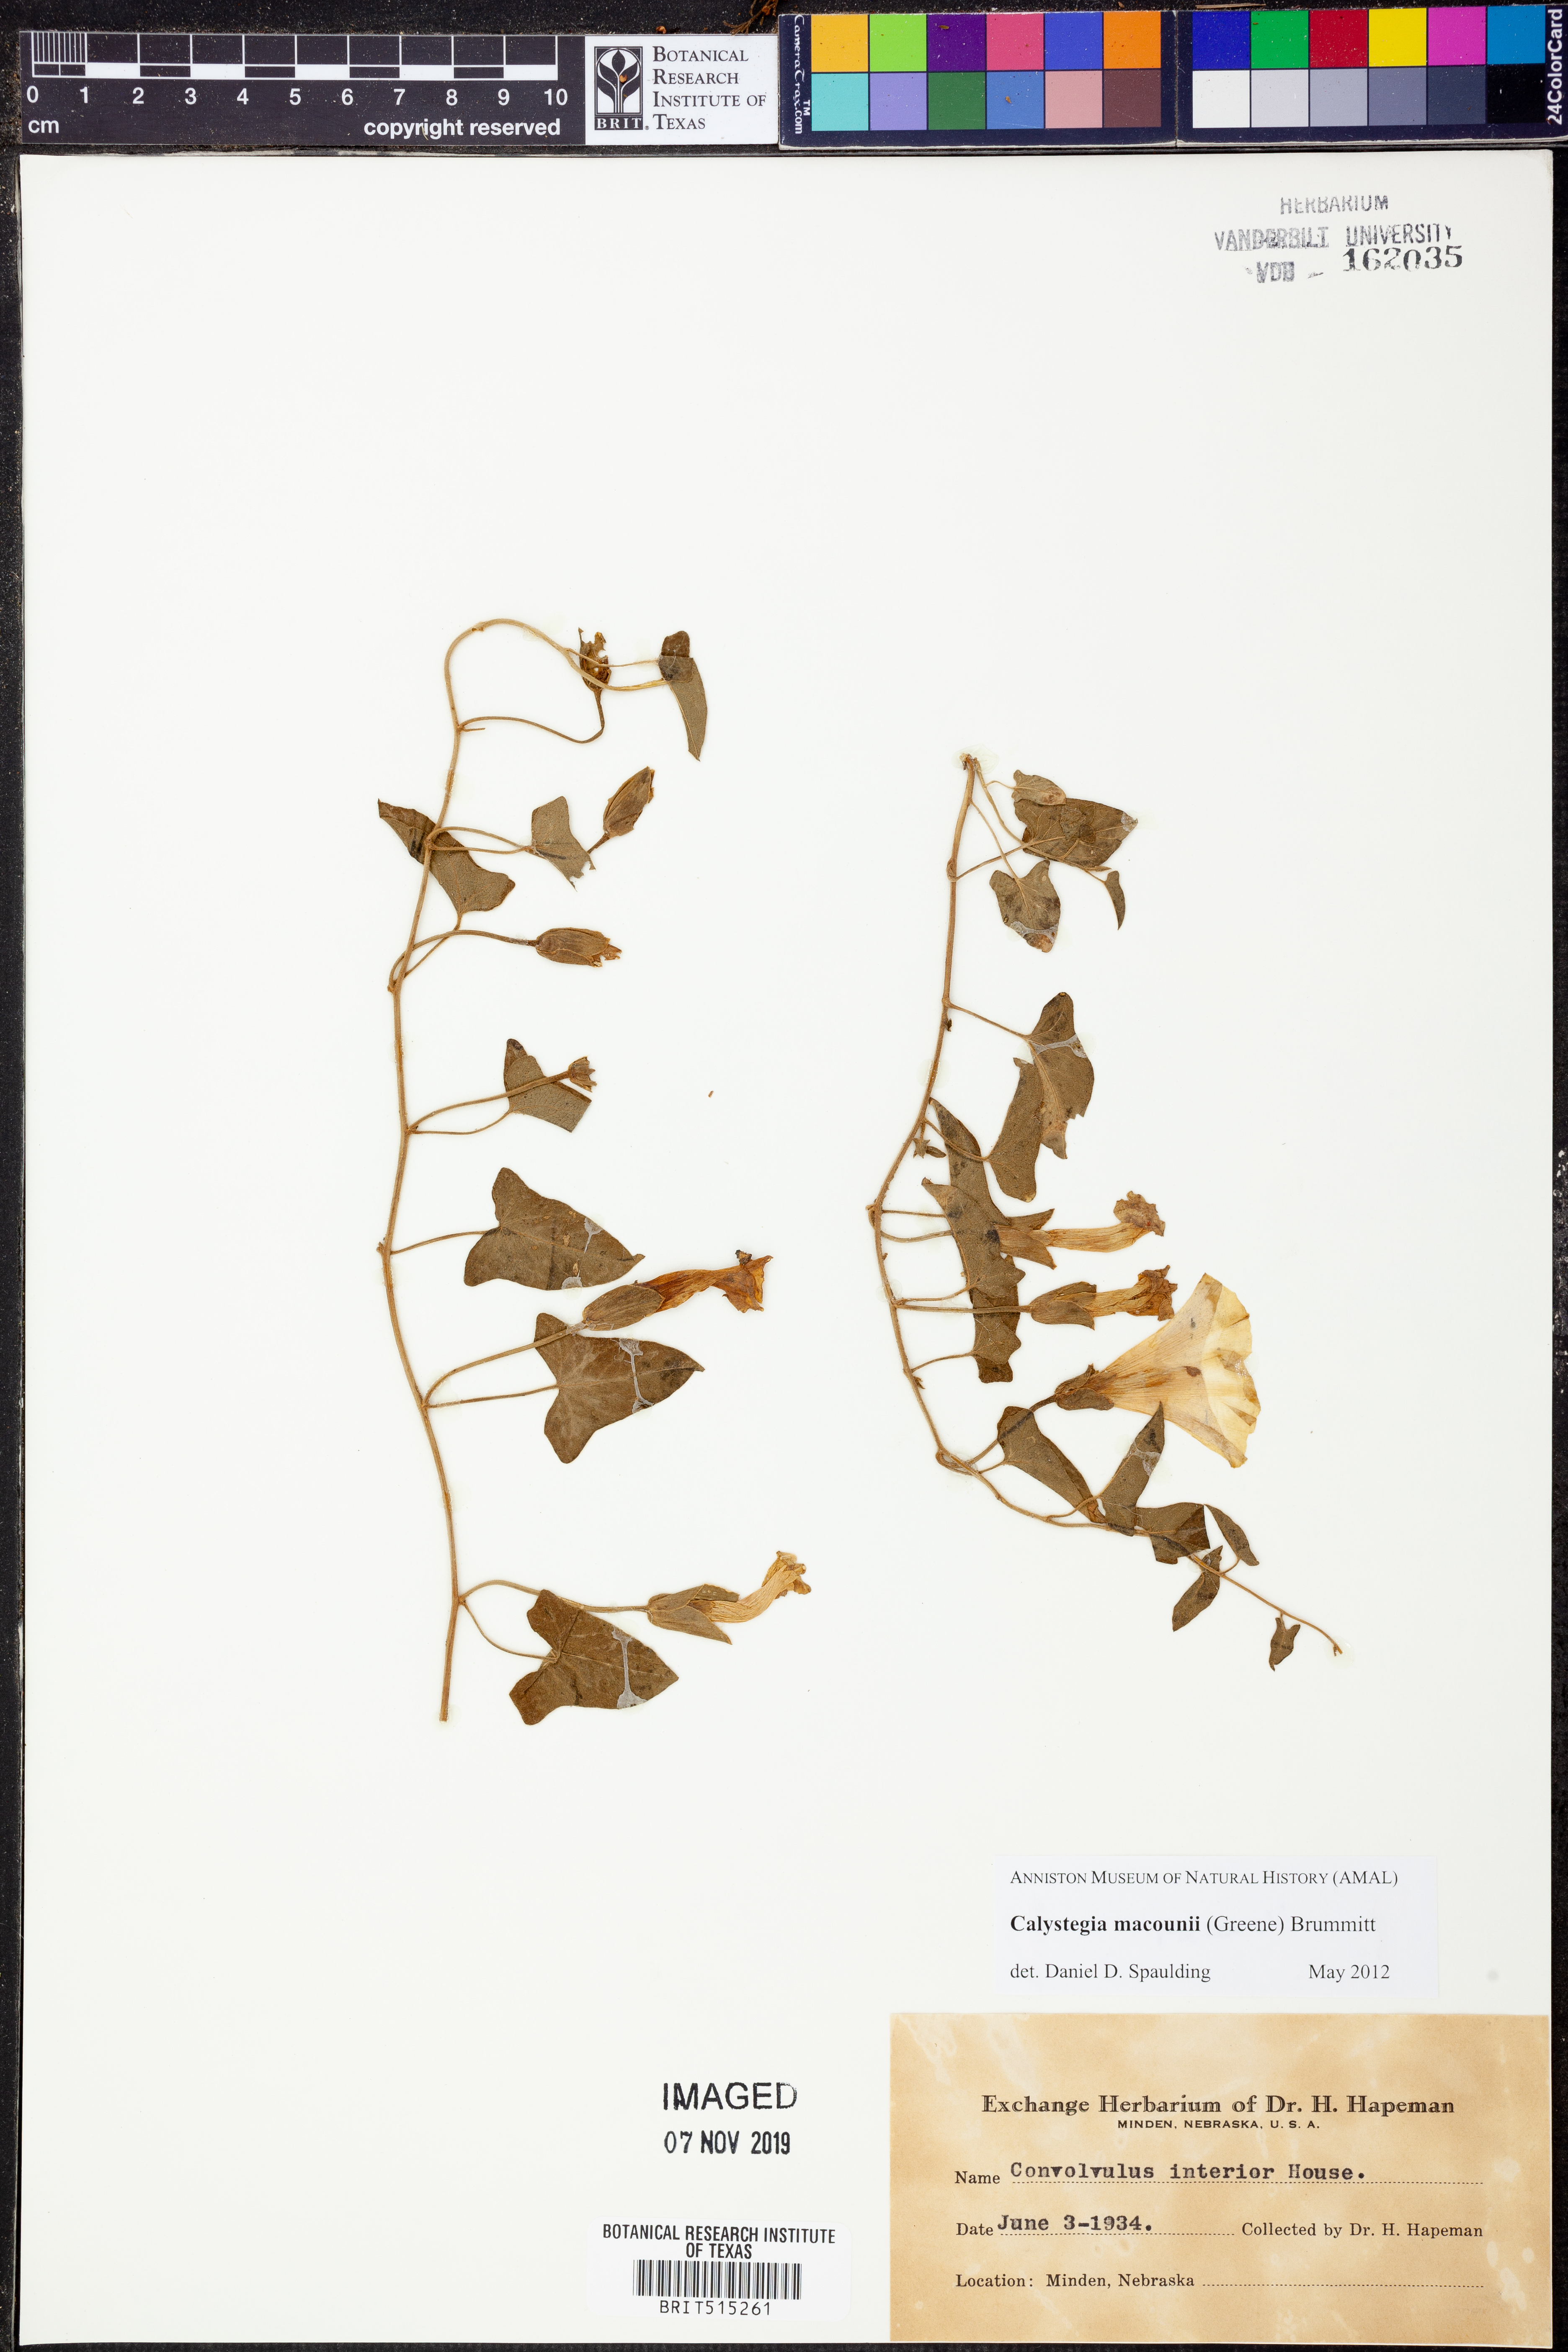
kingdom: Plantae
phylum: Tracheophyta
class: Magnoliopsida
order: Solanales
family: Convolvulaceae
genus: Calystegia
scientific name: Calystegia macounii
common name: Macoun's bindweed
